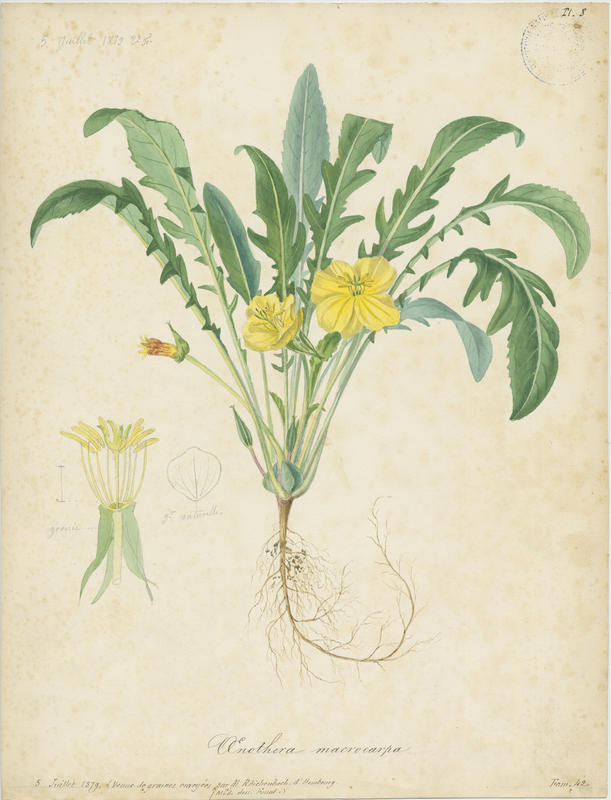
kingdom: Plantae
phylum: Tracheophyta
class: Magnoliopsida
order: Myrtales
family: Onagraceae
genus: Oenothera
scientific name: Oenothera macrocarpa
